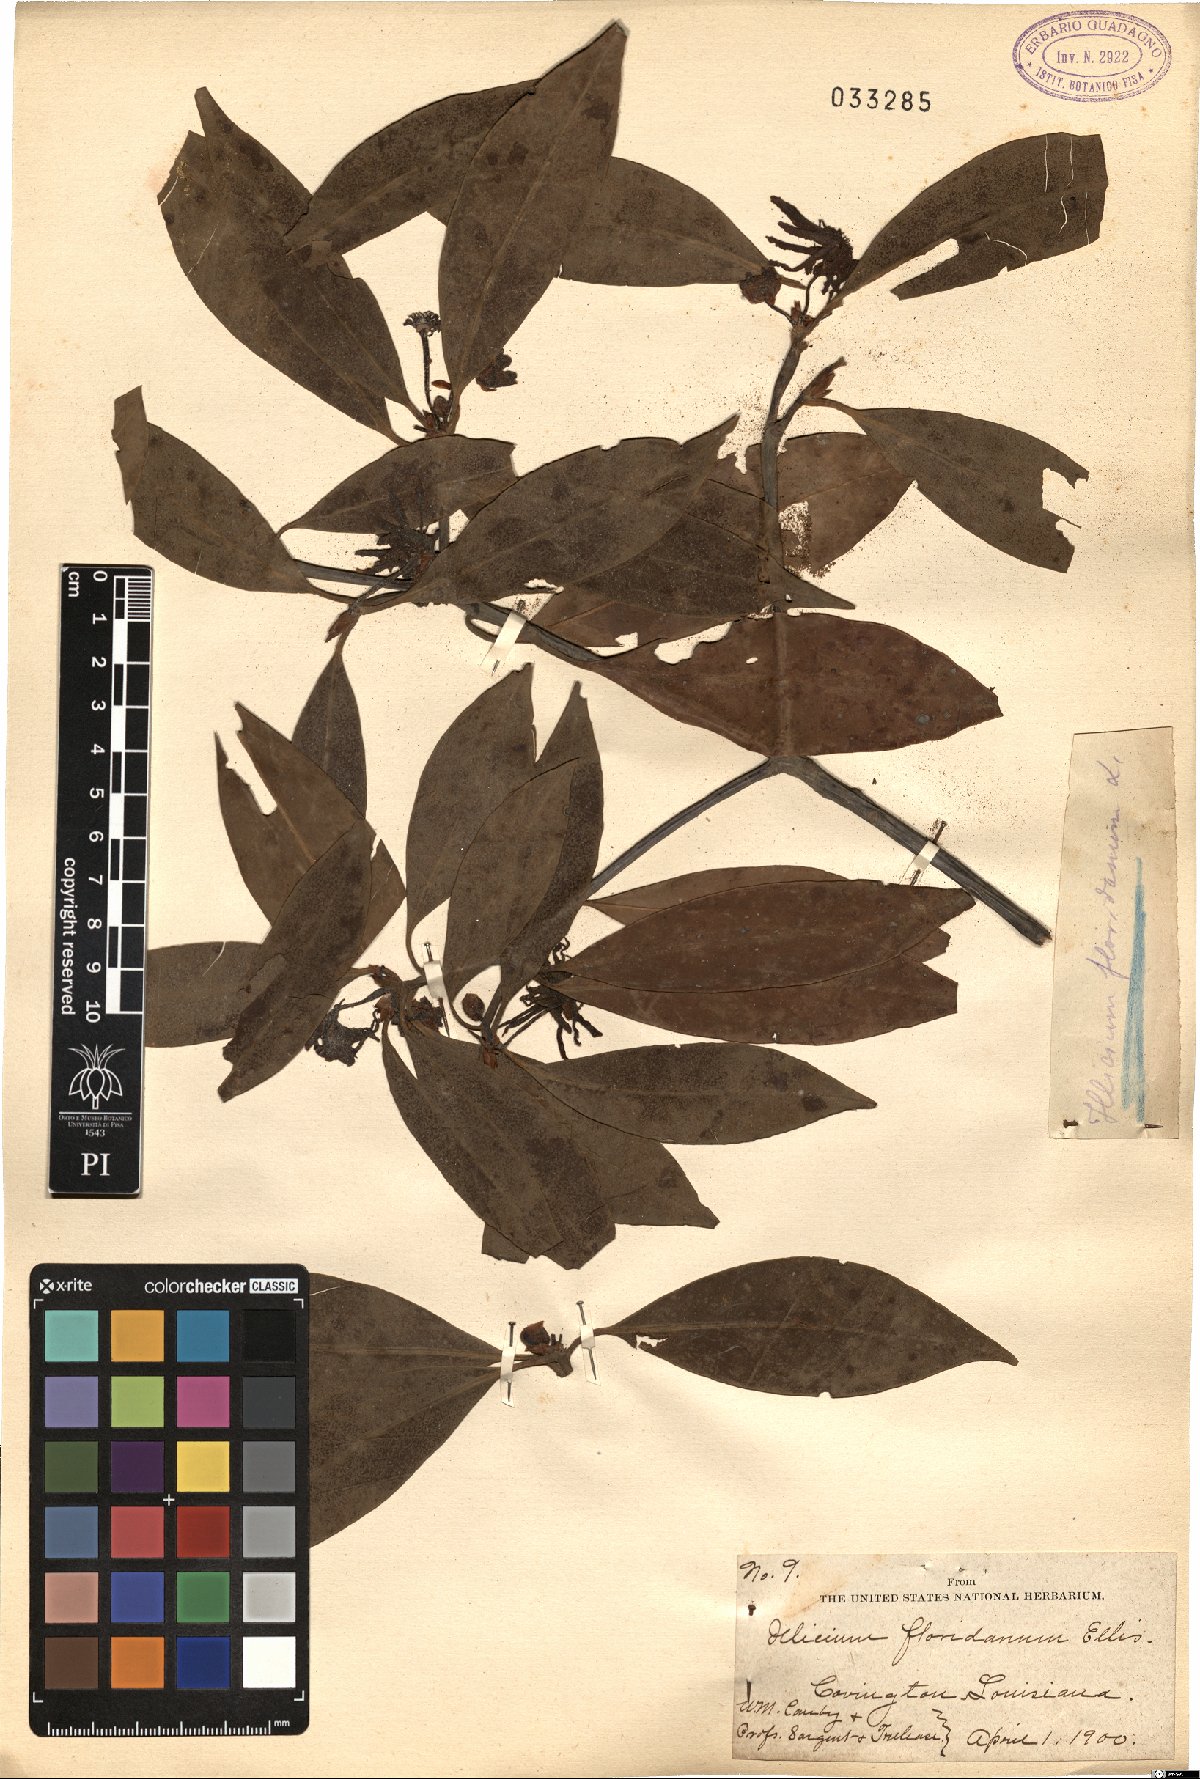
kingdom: Plantae
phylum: Tracheophyta
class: Magnoliopsida
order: Austrobaileyales
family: Schisandraceae
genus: Illicium
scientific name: Illicium floridanum
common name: Florida anisetree
